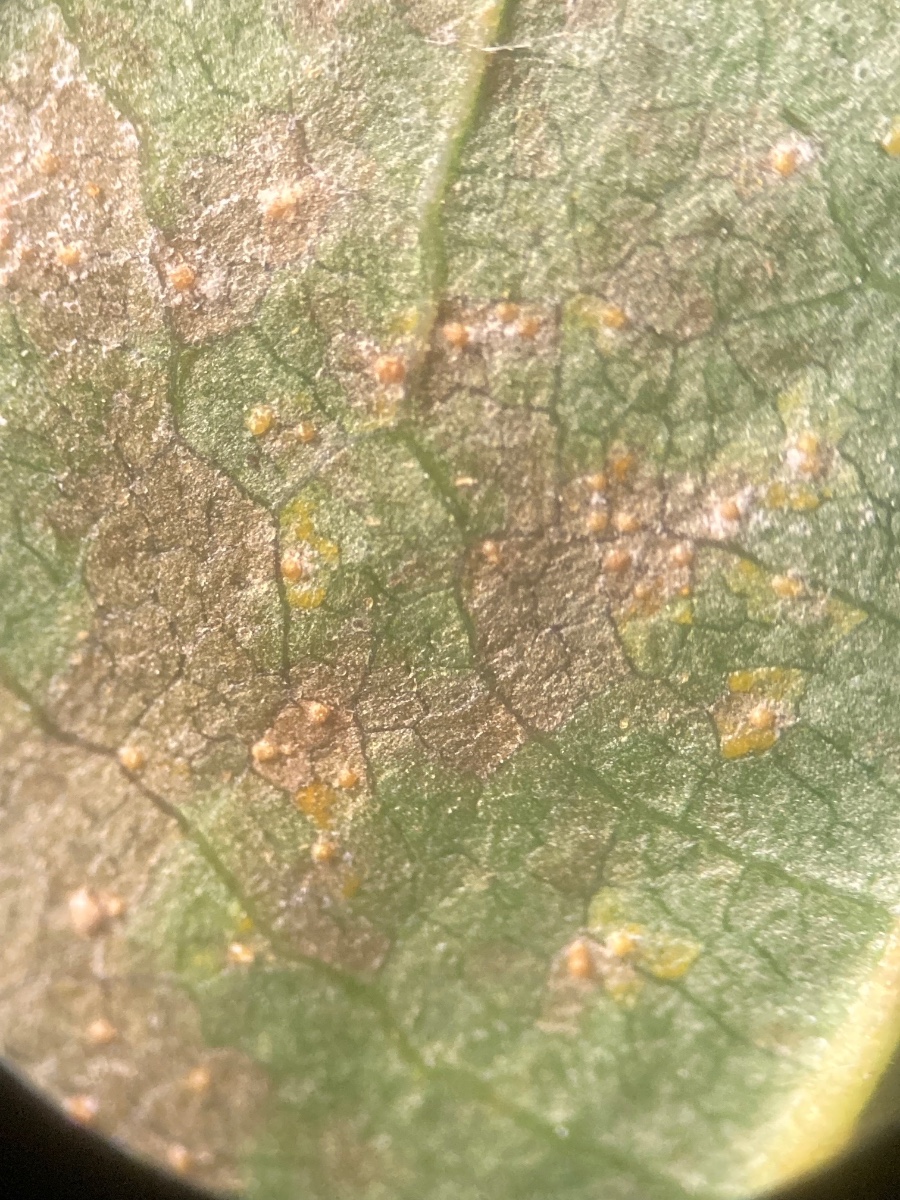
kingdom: Fungi
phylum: Basidiomycota
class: Pucciniomycetes
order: Pucciniales
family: Pucciniastraceae
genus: Melampsoridium
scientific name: Melampsoridium hiratsukanum
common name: Alder rust
